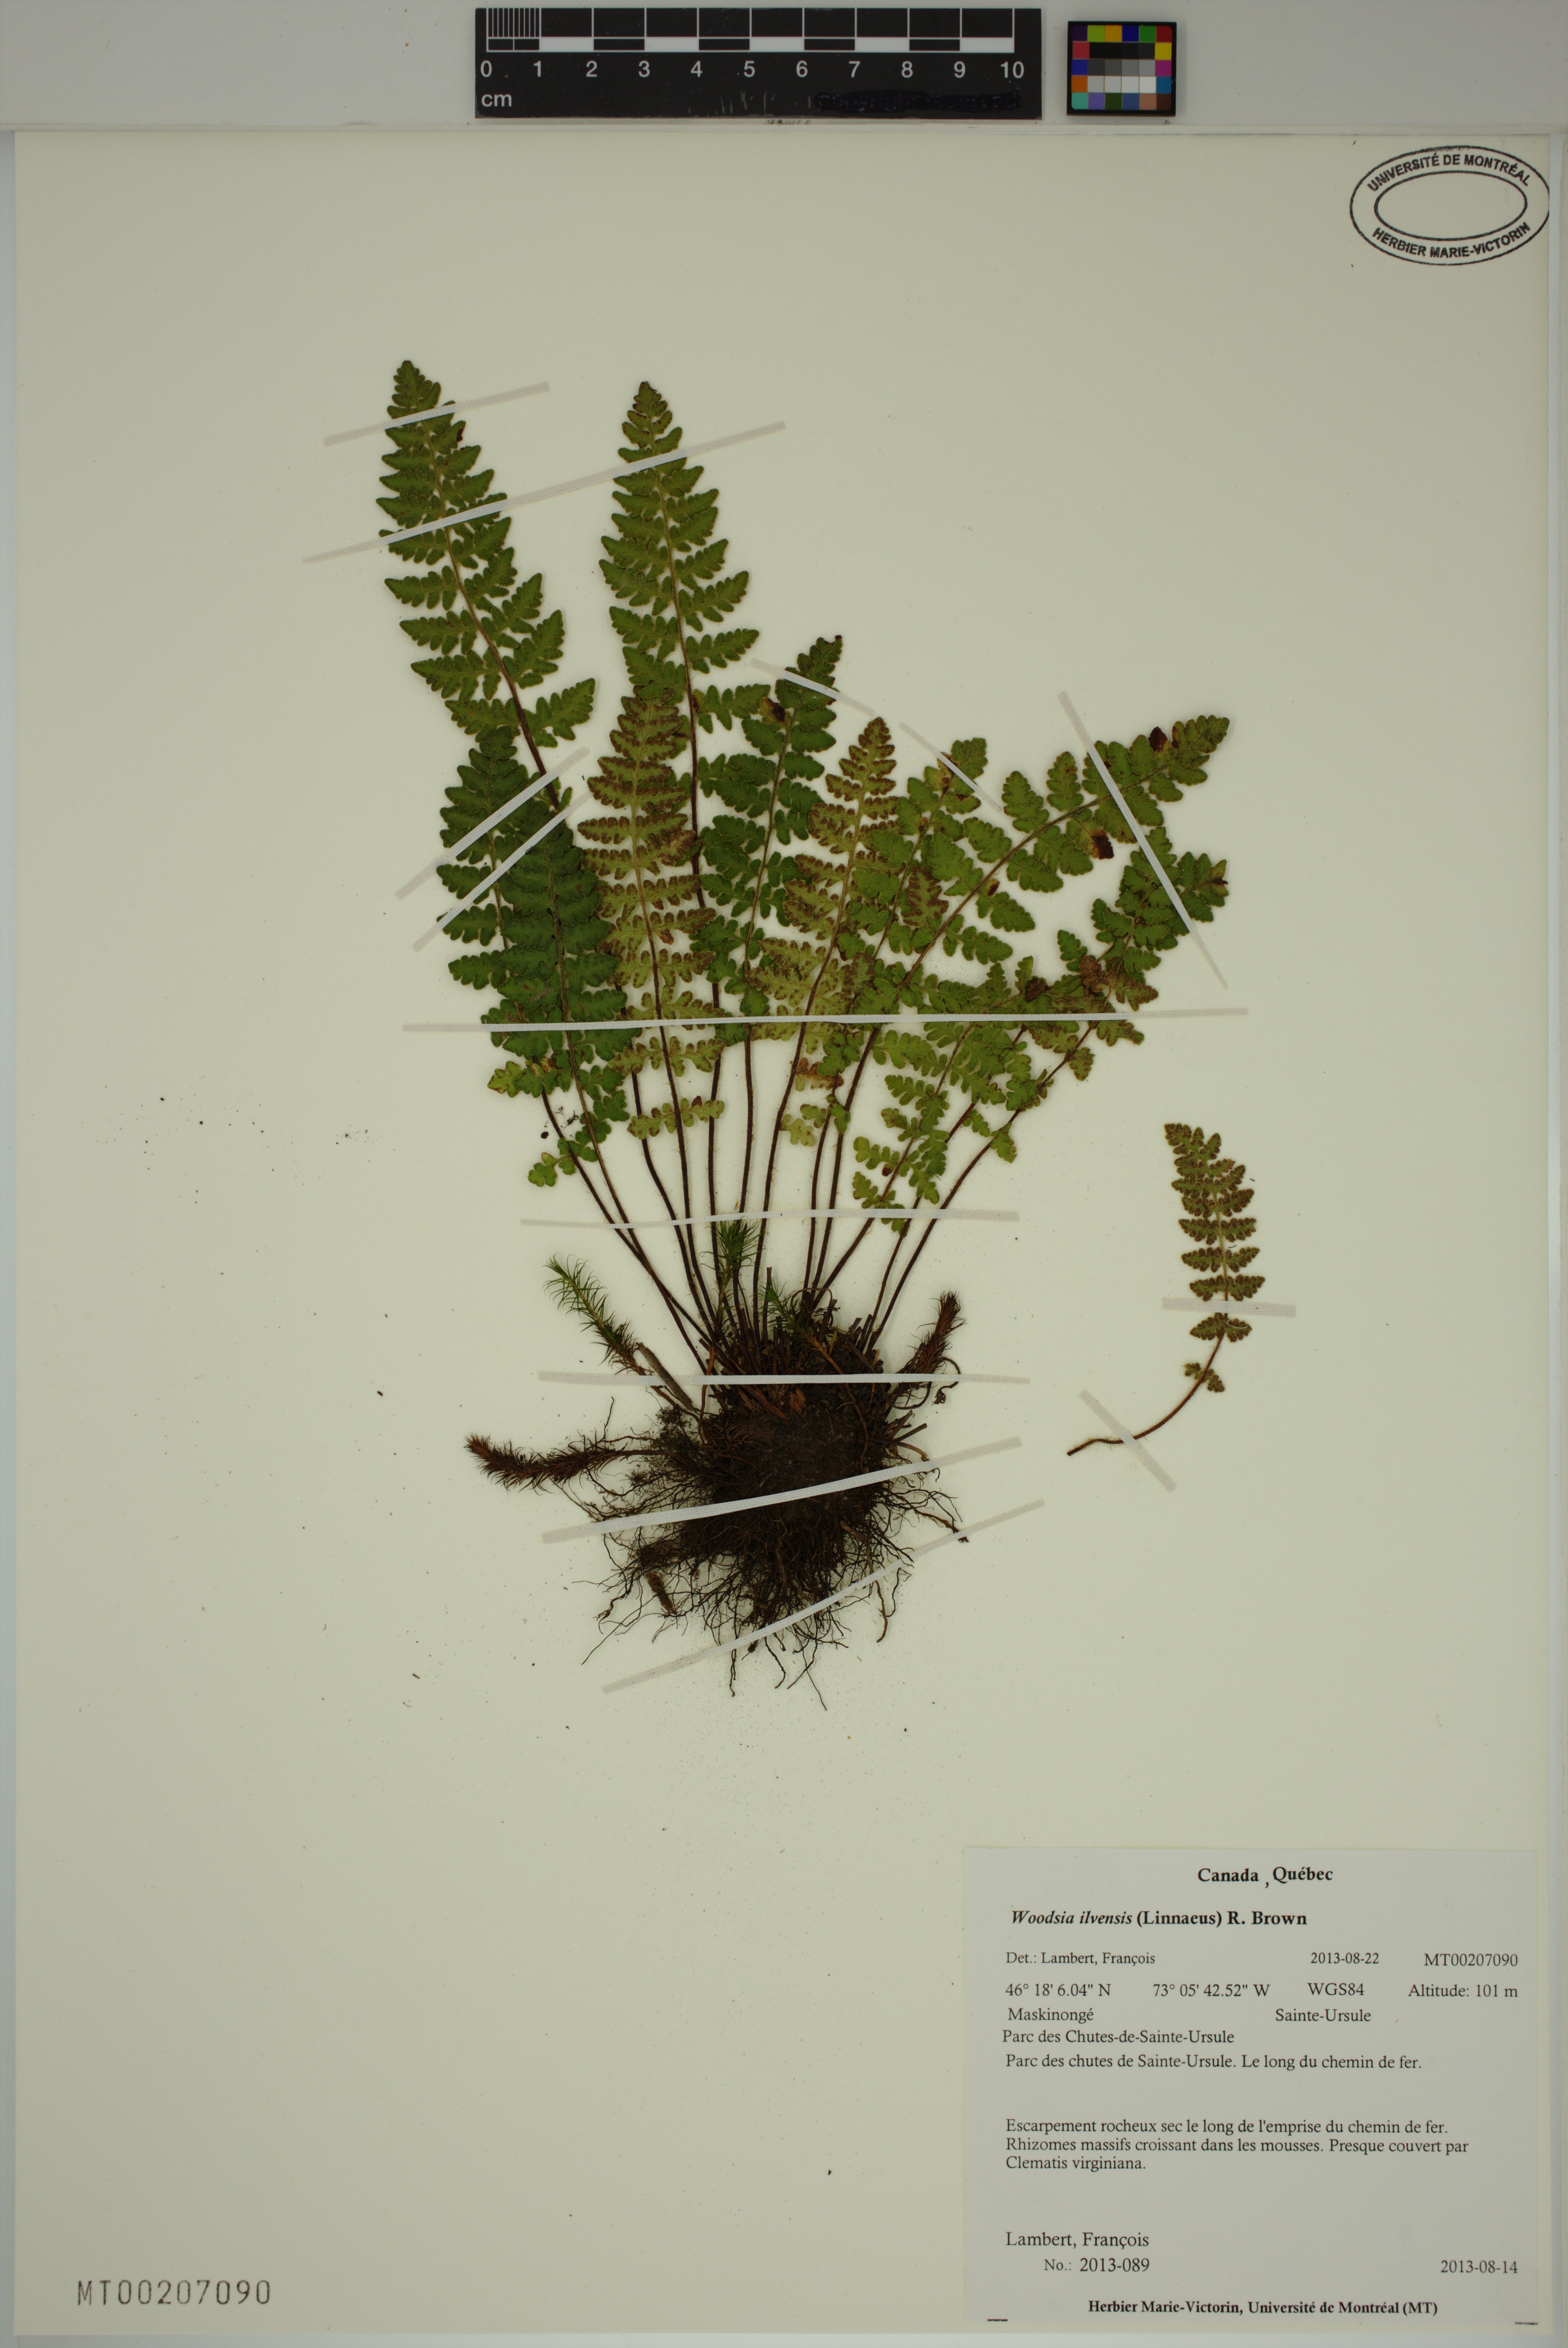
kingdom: Plantae
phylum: Tracheophyta
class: Polypodiopsida
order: Polypodiales
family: Woodsiaceae
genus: Woodsia
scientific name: Woodsia ilvensis
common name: Fragrant woodsia
